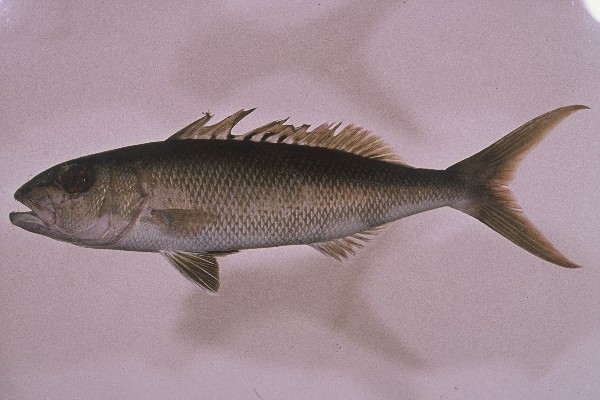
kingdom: Animalia
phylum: Chordata
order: Perciformes
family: Lutjanidae
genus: Aprion
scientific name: Aprion virescens
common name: Green jobfish
